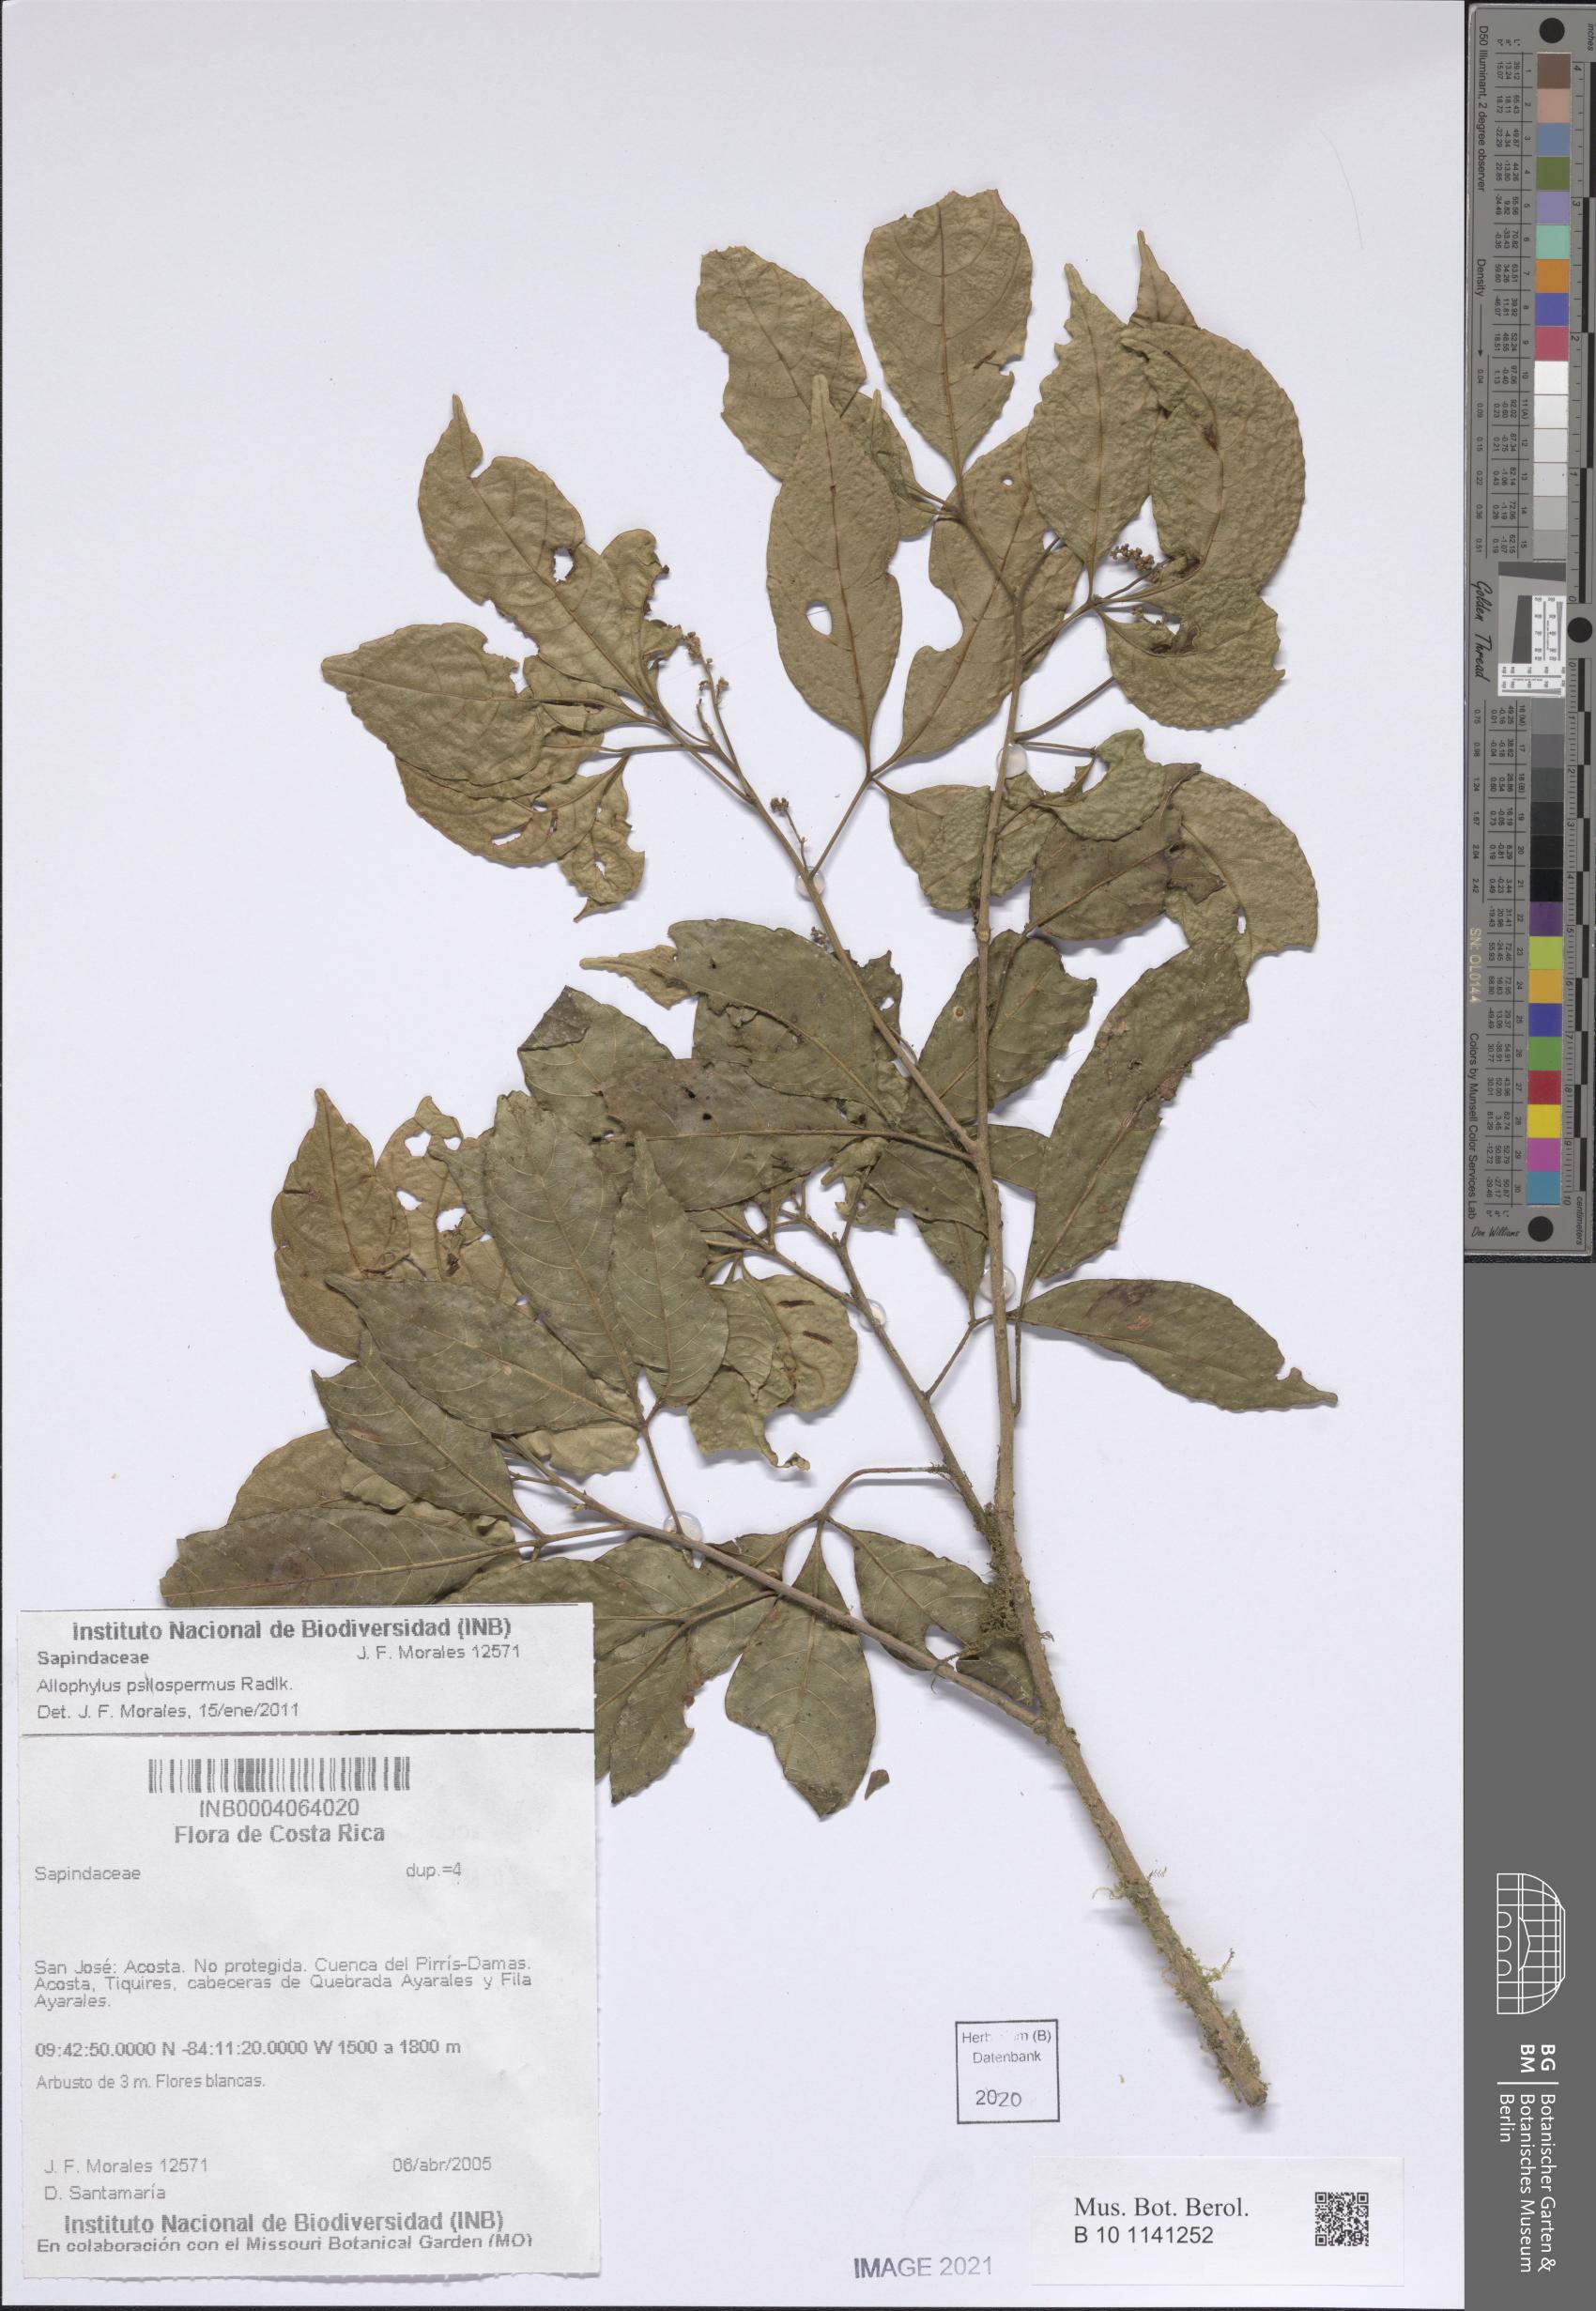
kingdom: Plantae
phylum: Tracheophyta
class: Magnoliopsida
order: Sapindales
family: Sapindaceae
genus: Allophylus
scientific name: Allophylus psilospermus
